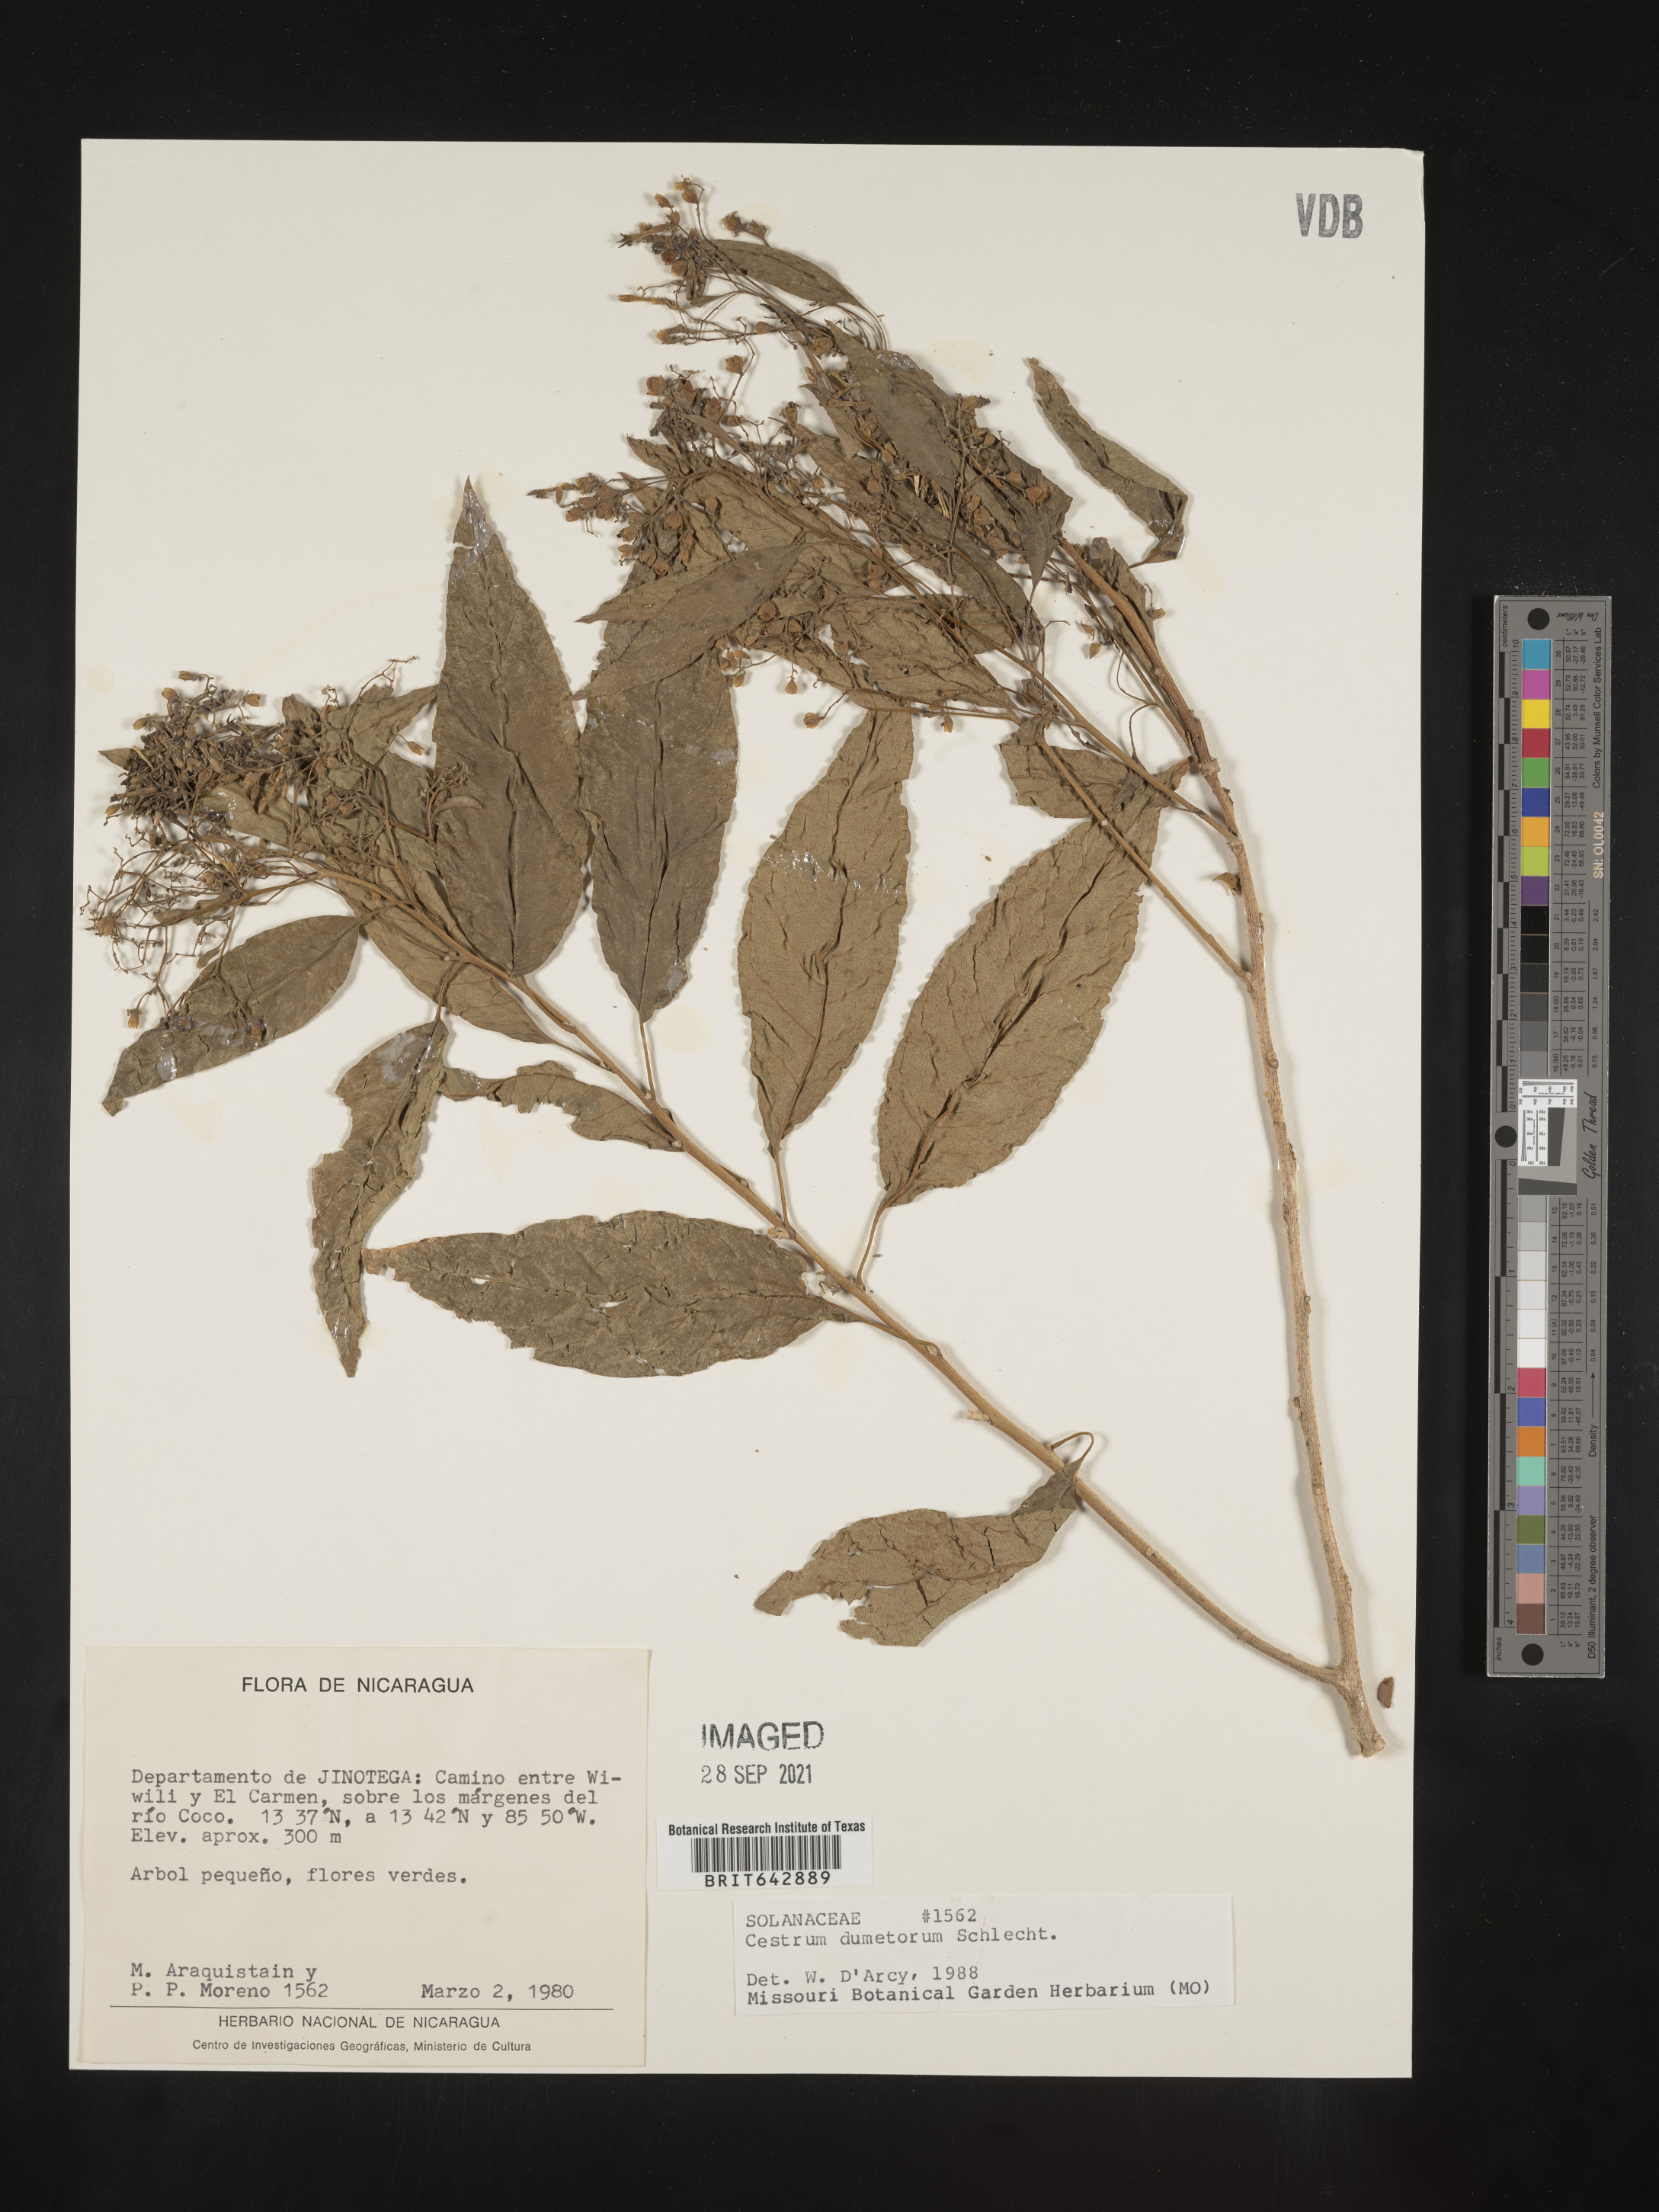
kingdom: Plantae
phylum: Tracheophyta
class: Magnoliopsida
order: Solanales
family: Solanaceae
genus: Cestrum
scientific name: Cestrum
